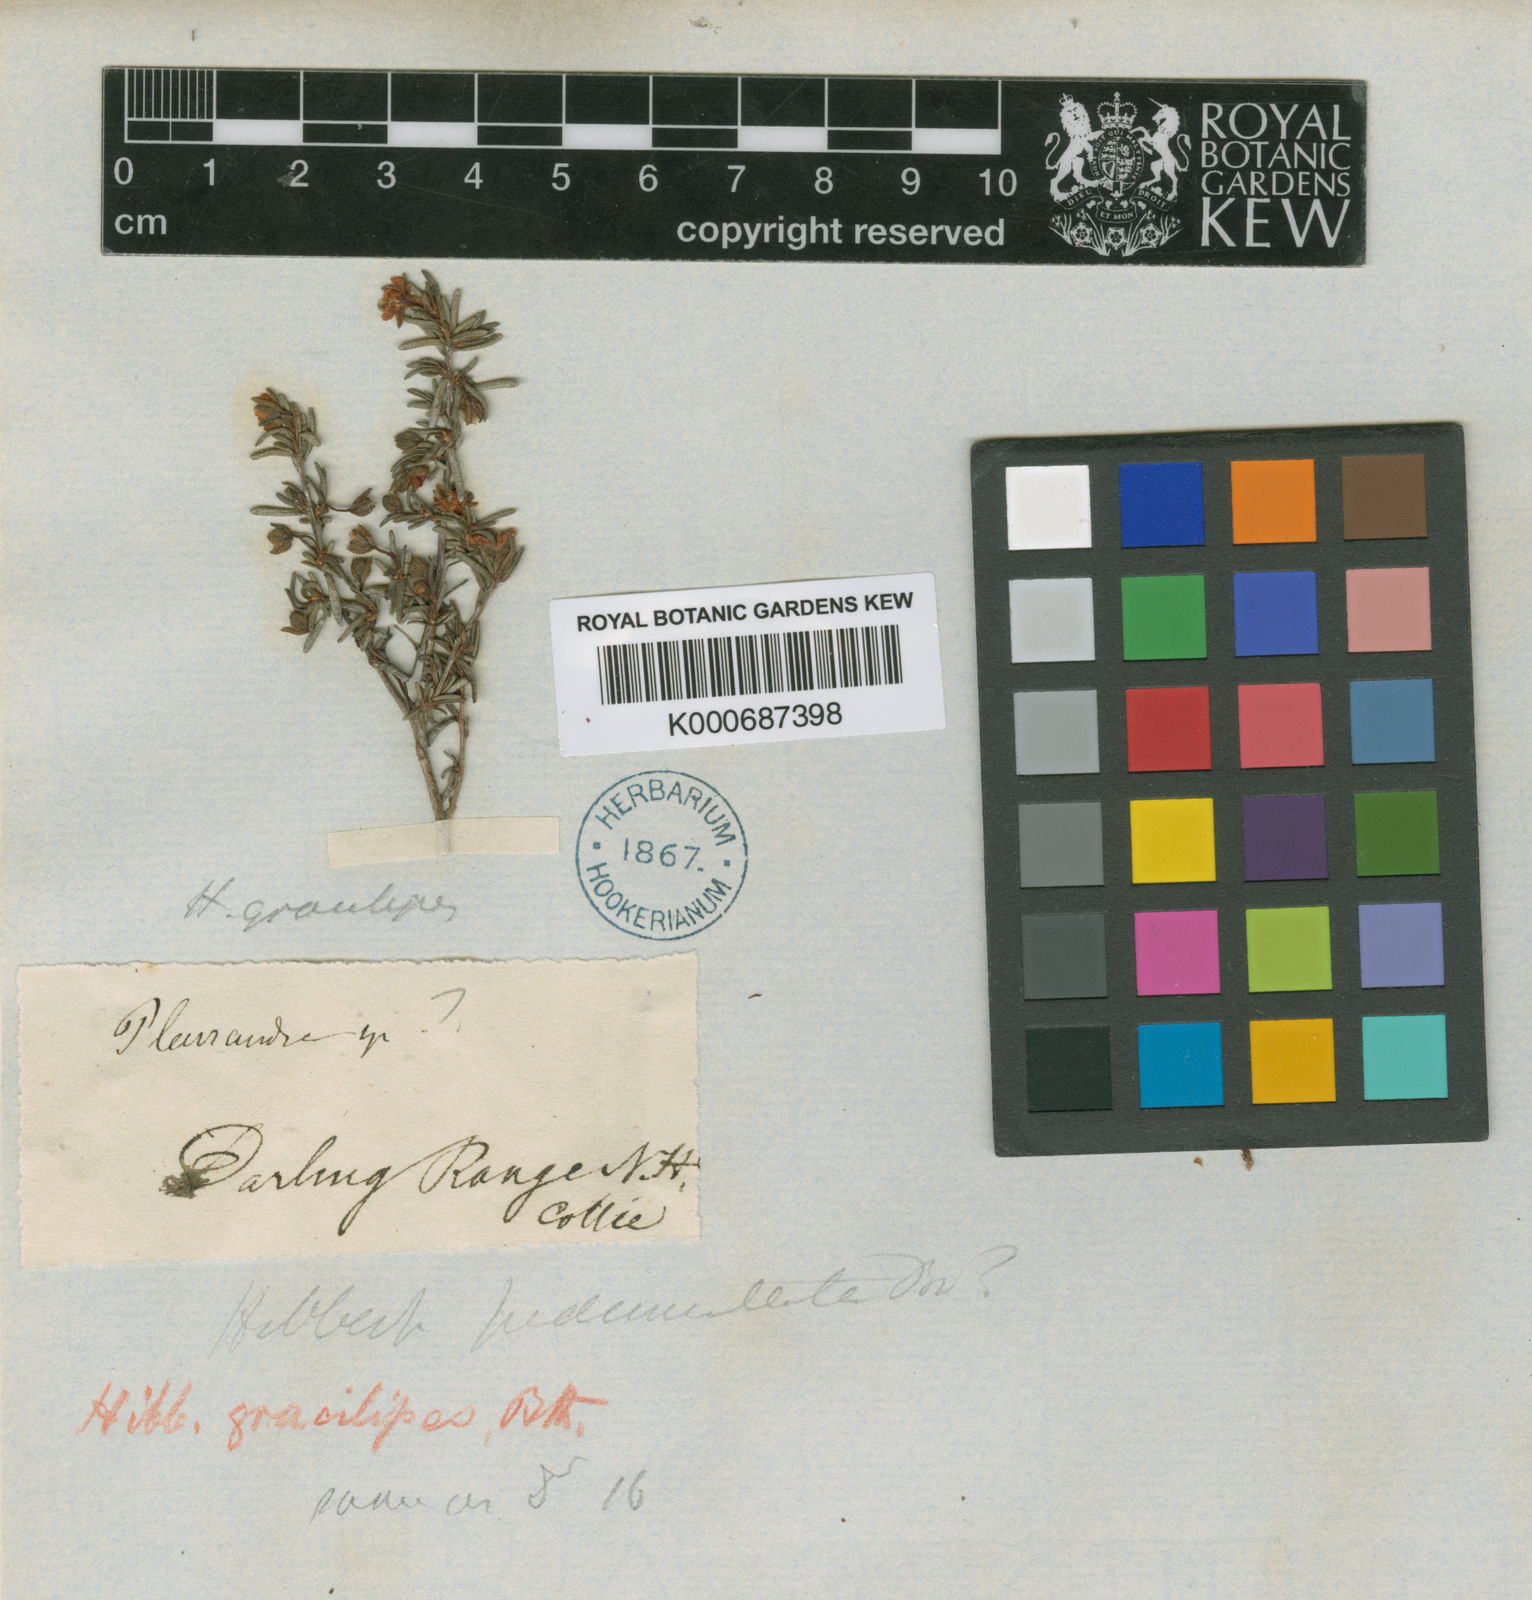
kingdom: Plantae
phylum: Tracheophyta
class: Magnoliopsida
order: Dilleniales
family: Dilleniaceae
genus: Hibbertia
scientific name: Hibbertia gracilipes
